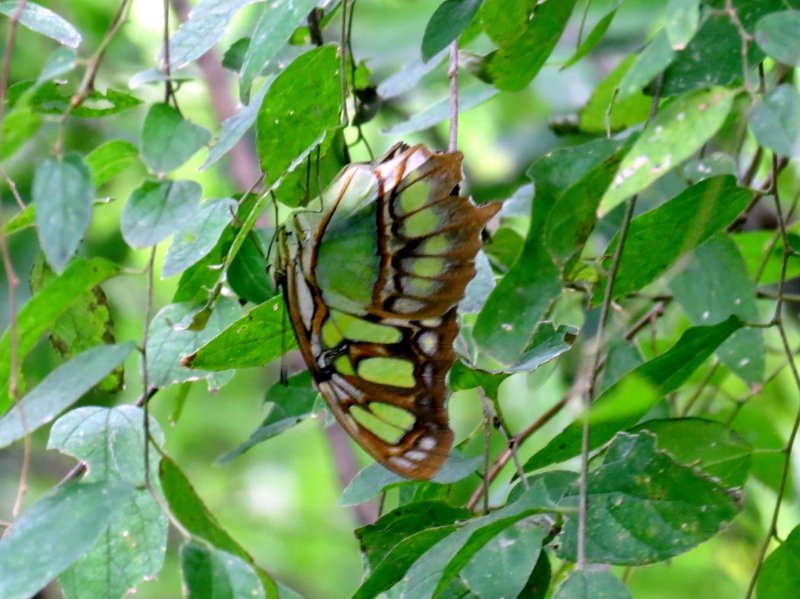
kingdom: Animalia
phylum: Arthropoda
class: Insecta
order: Lepidoptera
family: Nymphalidae
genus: Siproeta
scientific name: Siproeta stelenes
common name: Malachite
